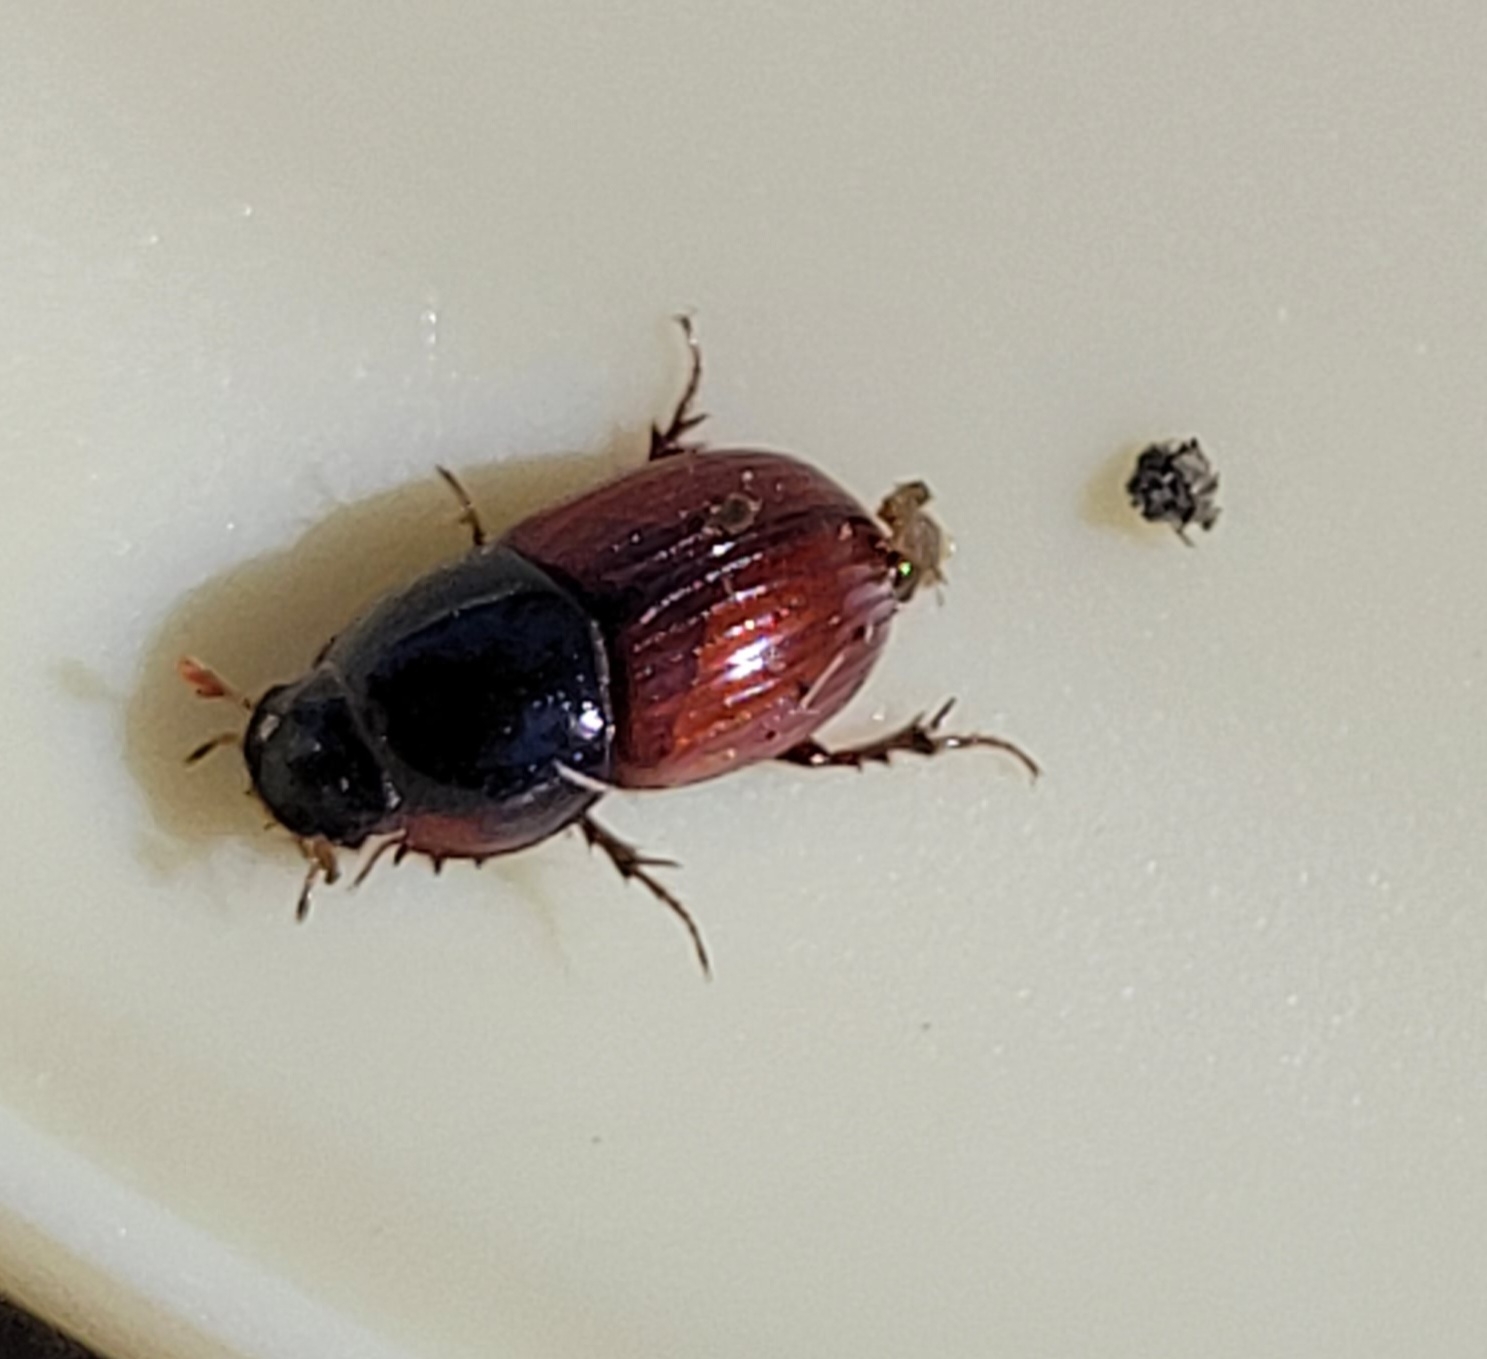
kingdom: Animalia
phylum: Arthropoda
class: Insecta
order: Coleoptera
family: Scarabaeidae
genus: Rhodaphodius
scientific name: Rhodaphodius foetens
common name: Rødbuget møgbille
